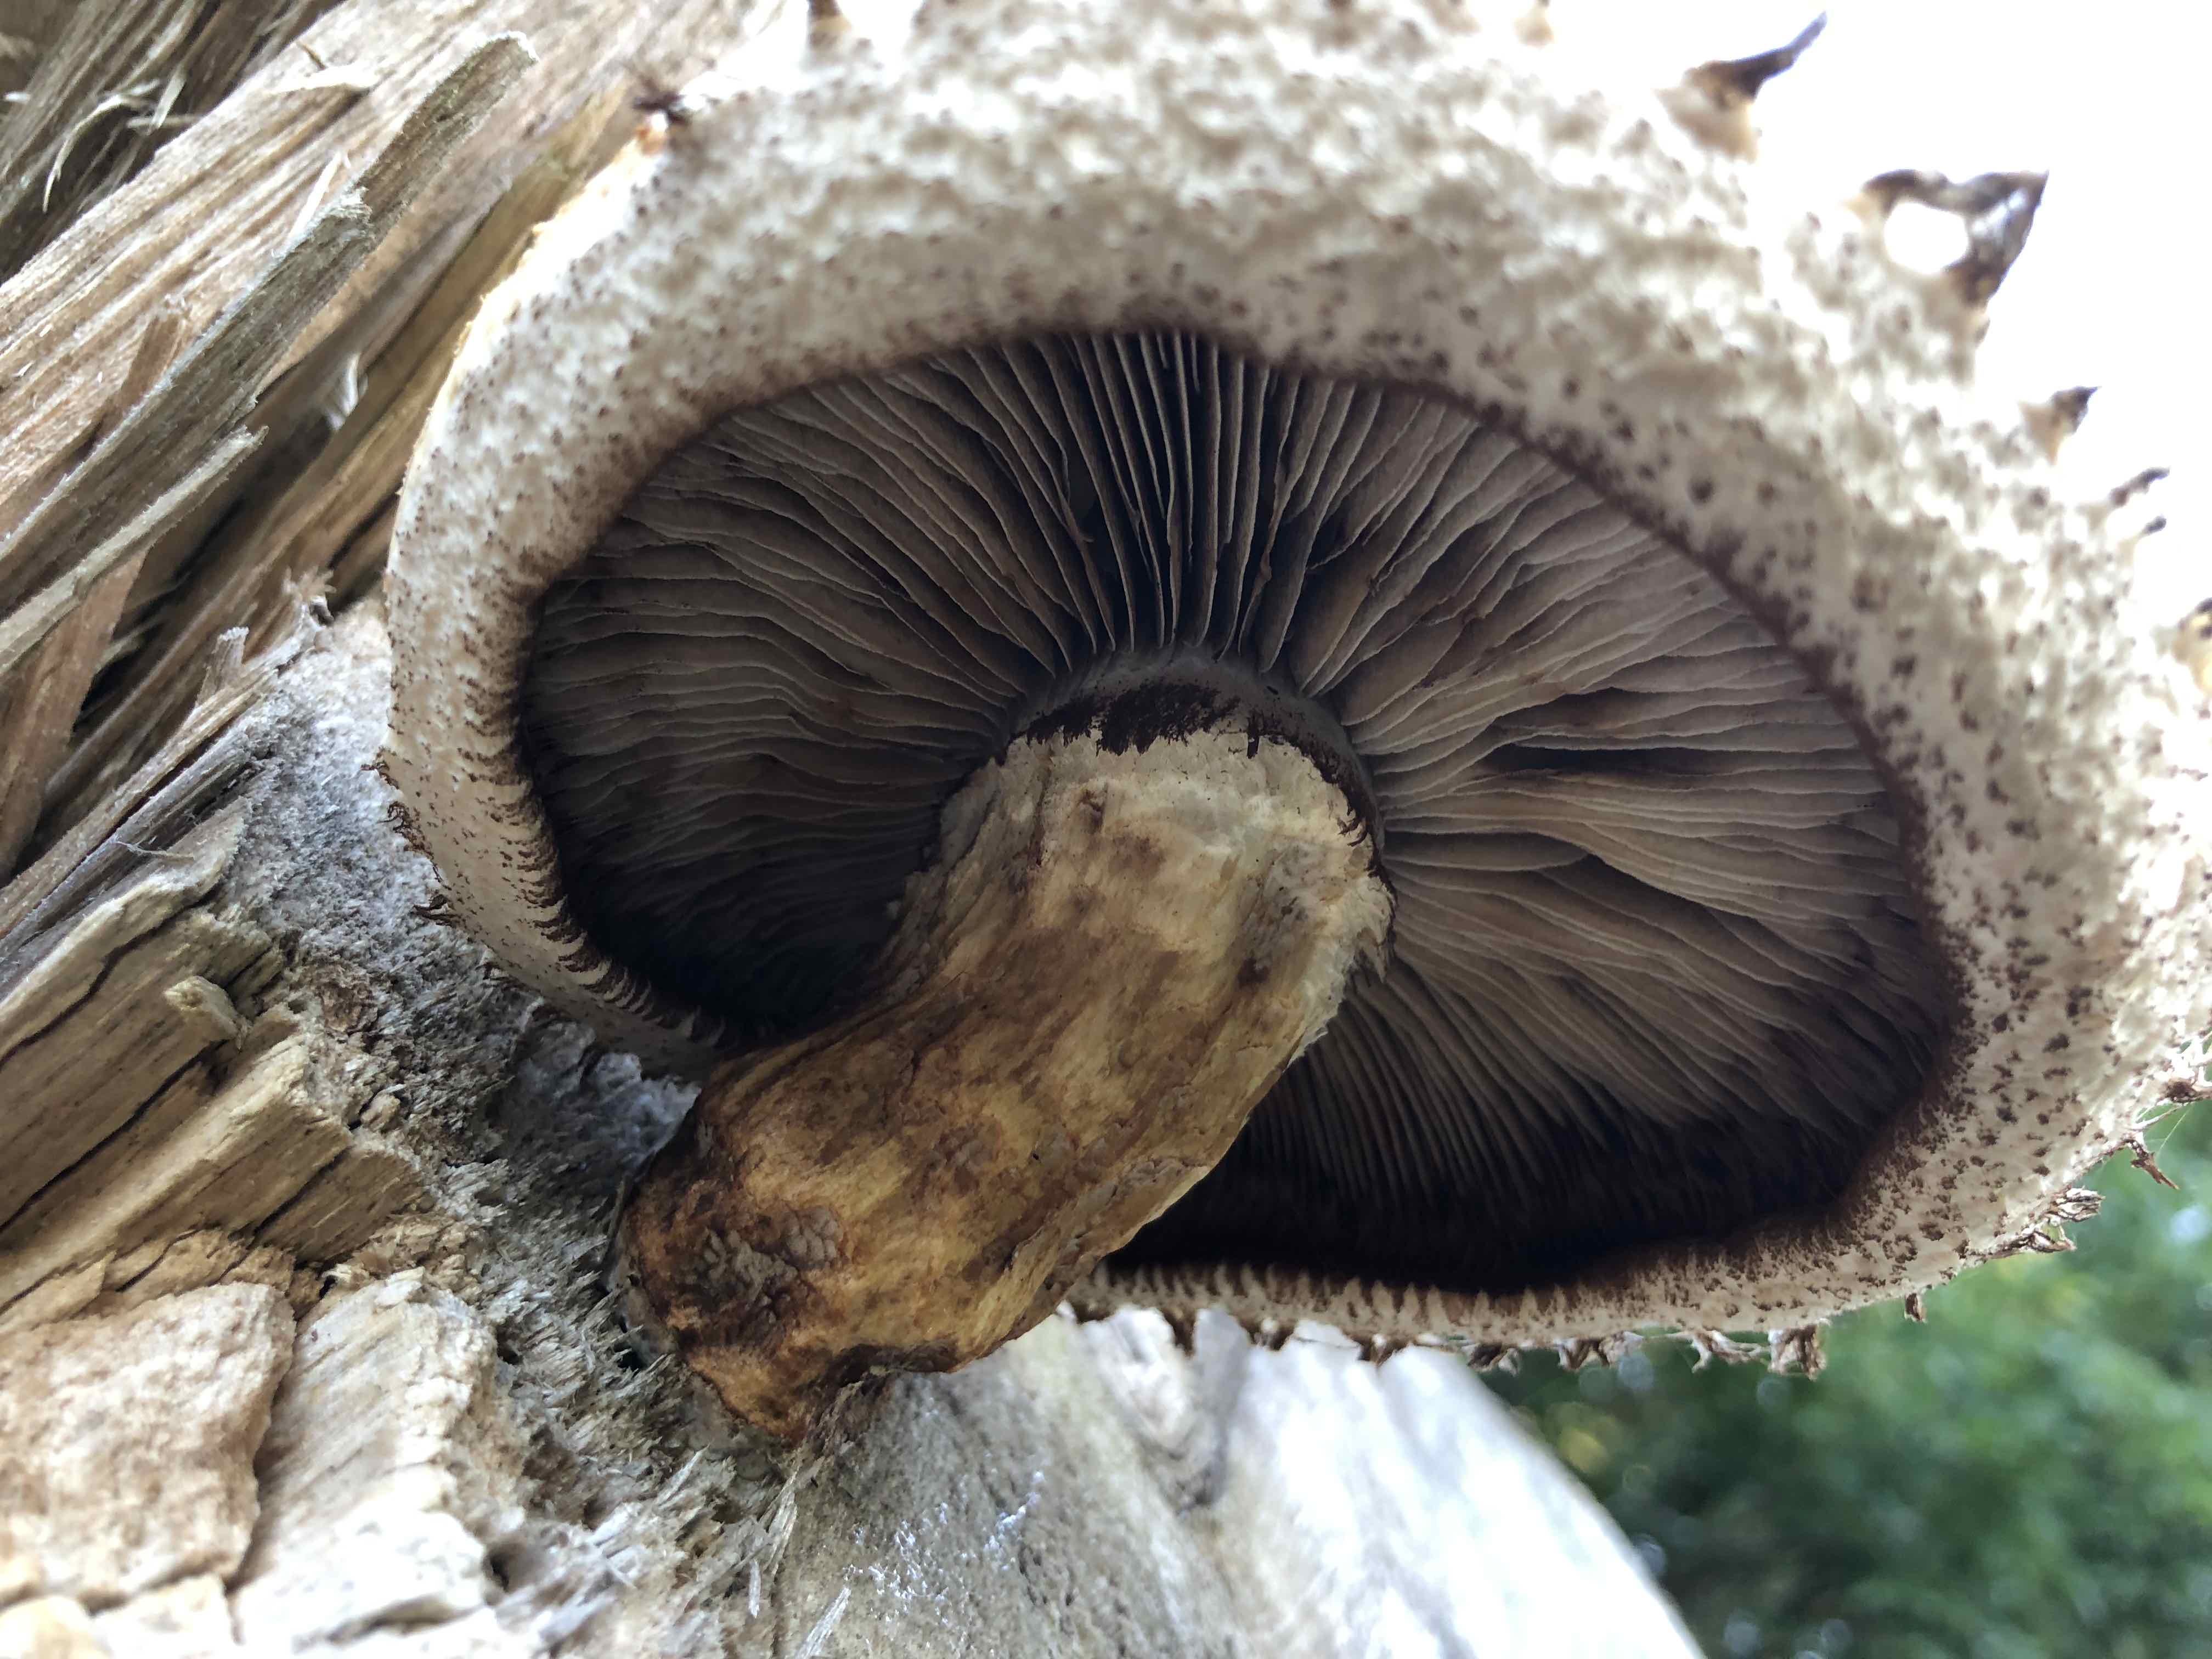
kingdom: Fungi
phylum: Basidiomycota
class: Agaricomycetes
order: Agaricales
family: Strophariaceae
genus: Pholiota
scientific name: Pholiota populnea
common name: poppel-kæmpeskælhat
